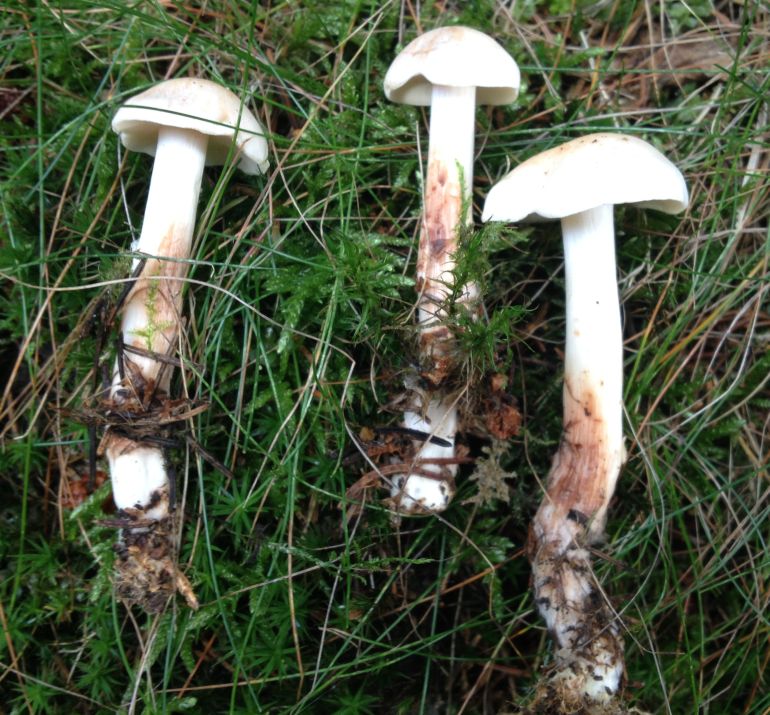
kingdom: Fungi
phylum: Basidiomycota
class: Agaricomycetes
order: Agaricales
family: Omphalotaceae
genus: Rhodocollybia
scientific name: Rhodocollybia maculata
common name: plettet fladhat
